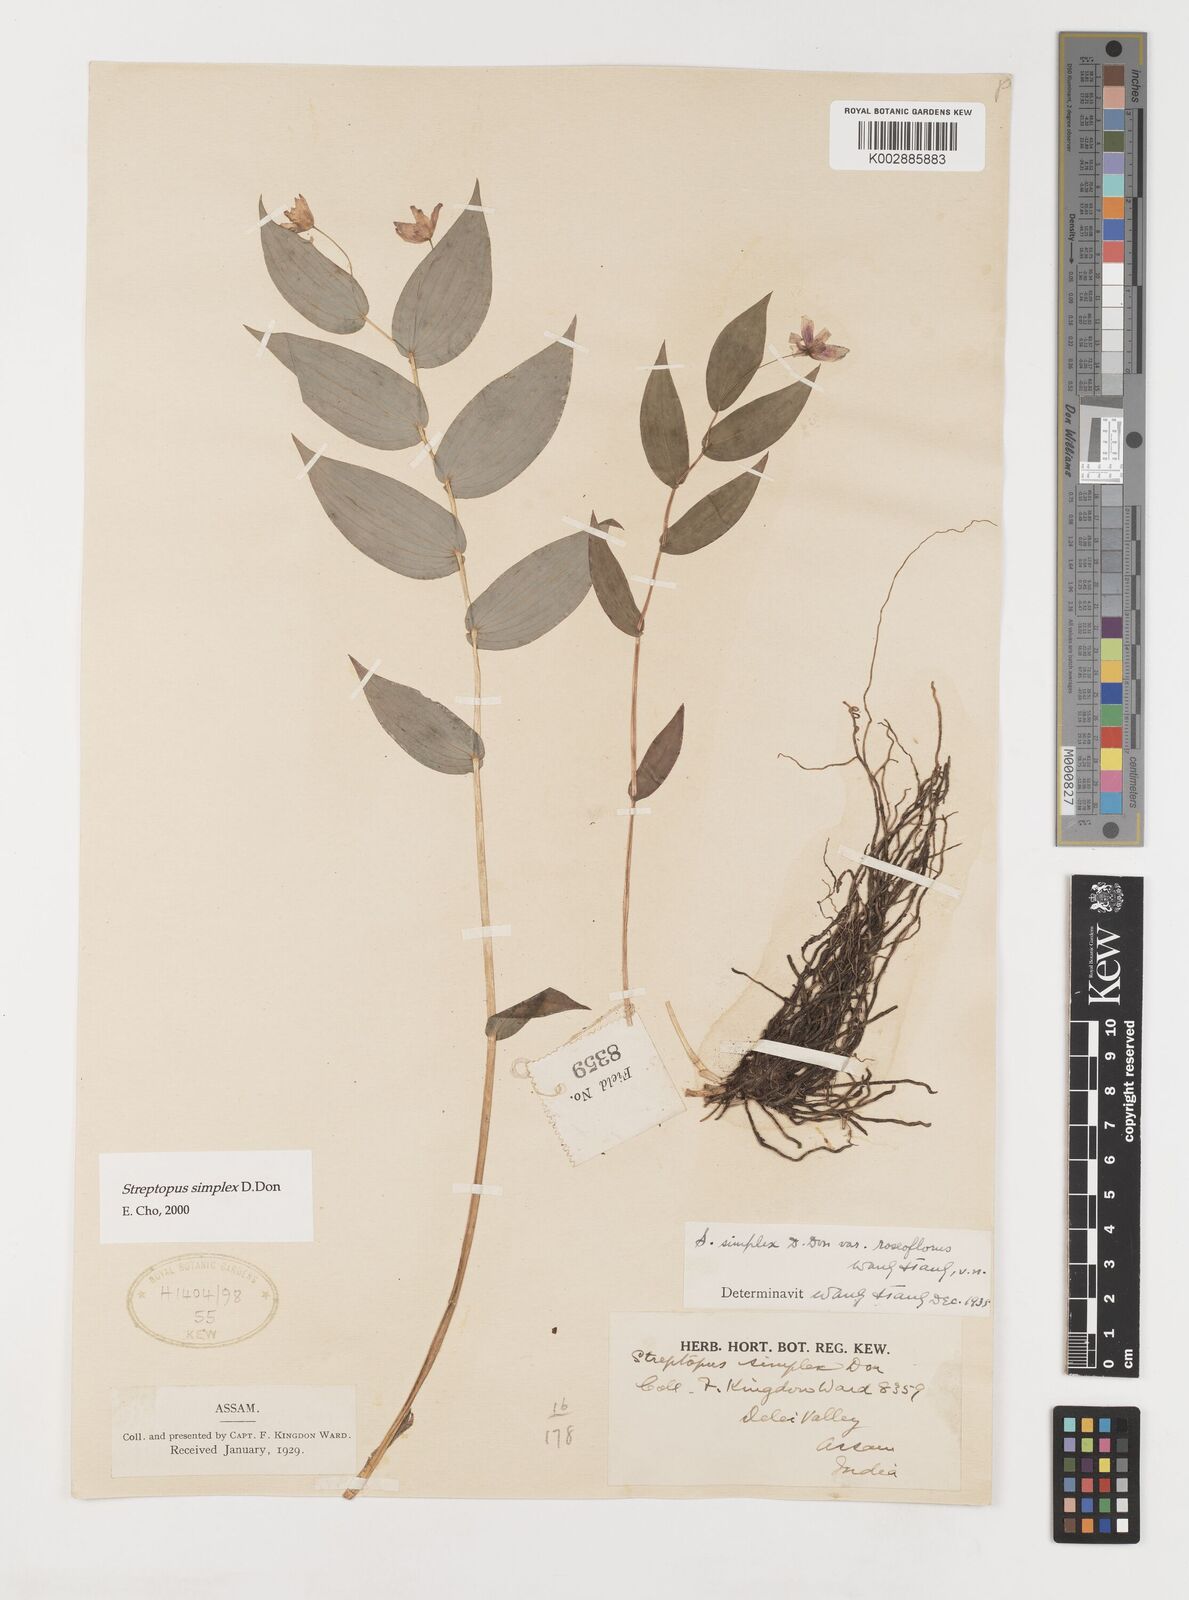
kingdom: Plantae
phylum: Tracheophyta
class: Liliopsida
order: Liliales
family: Liliaceae
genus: Streptopus
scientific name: Streptopus simplex
